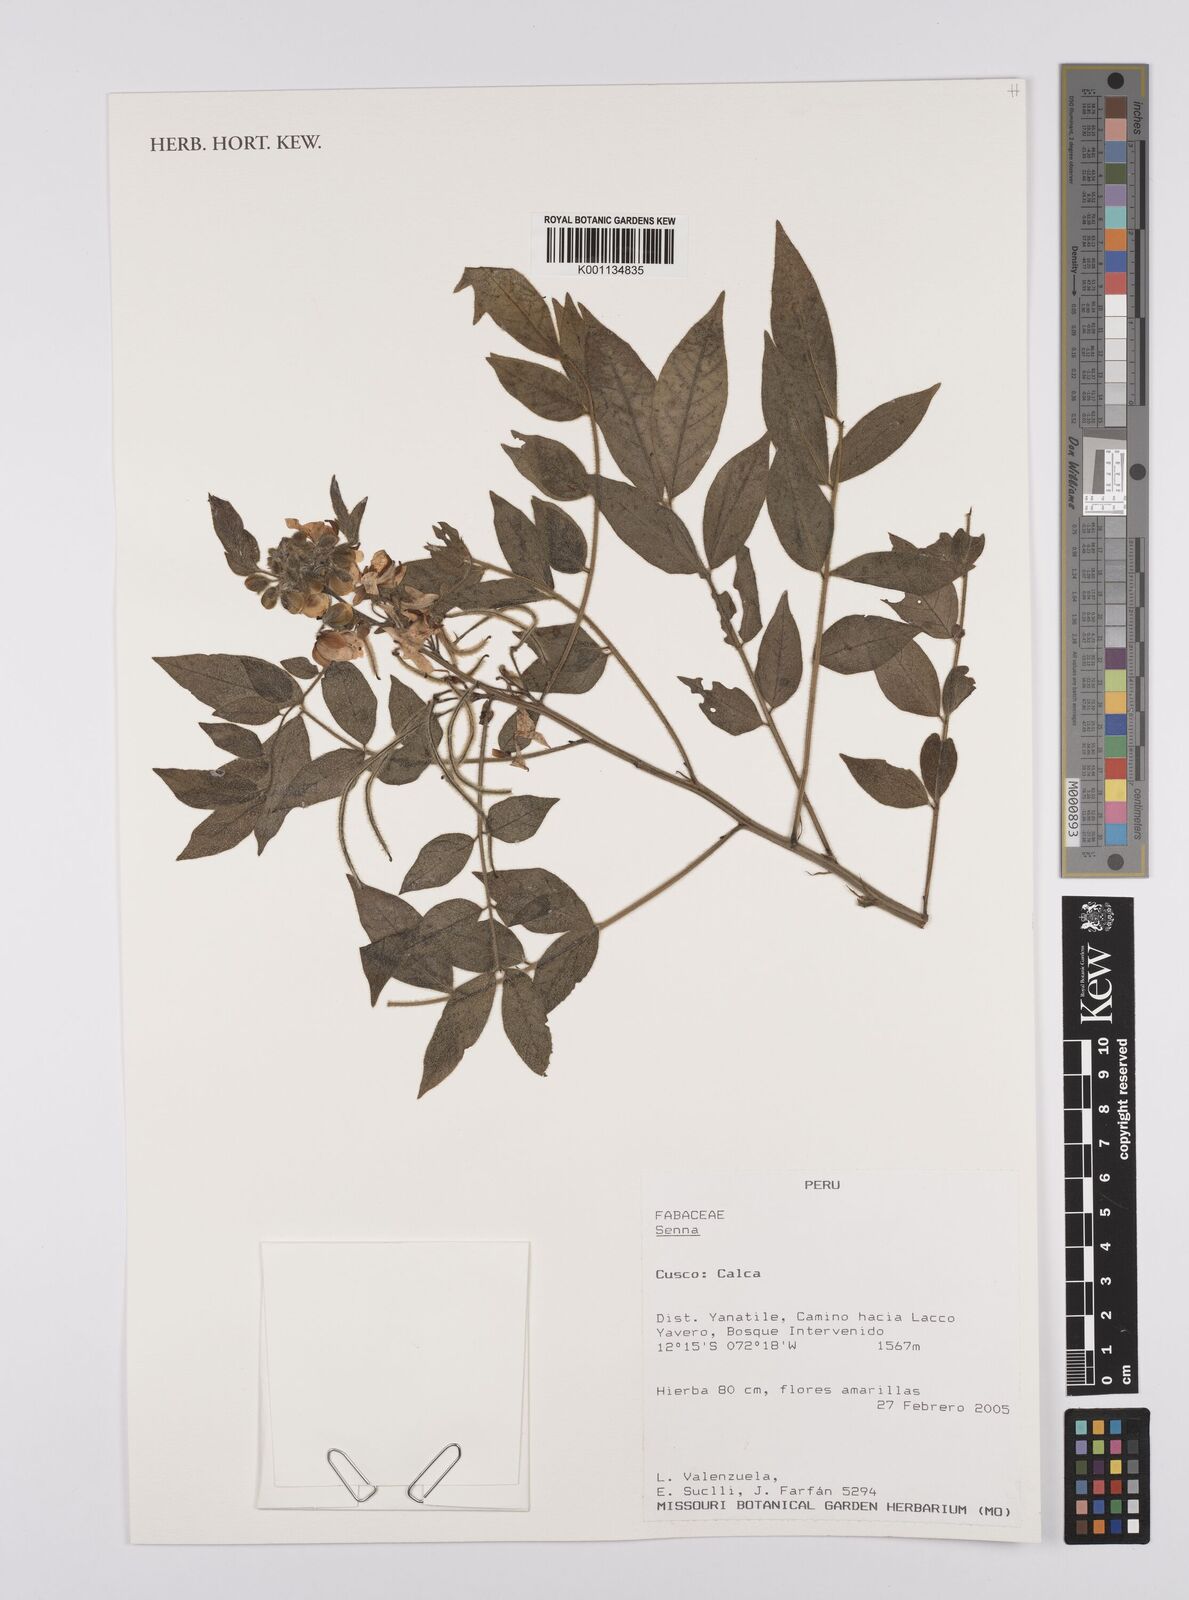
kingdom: Plantae
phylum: Tracheophyta
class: Magnoliopsida
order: Fabales
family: Fabaceae
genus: Senna
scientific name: Senna
